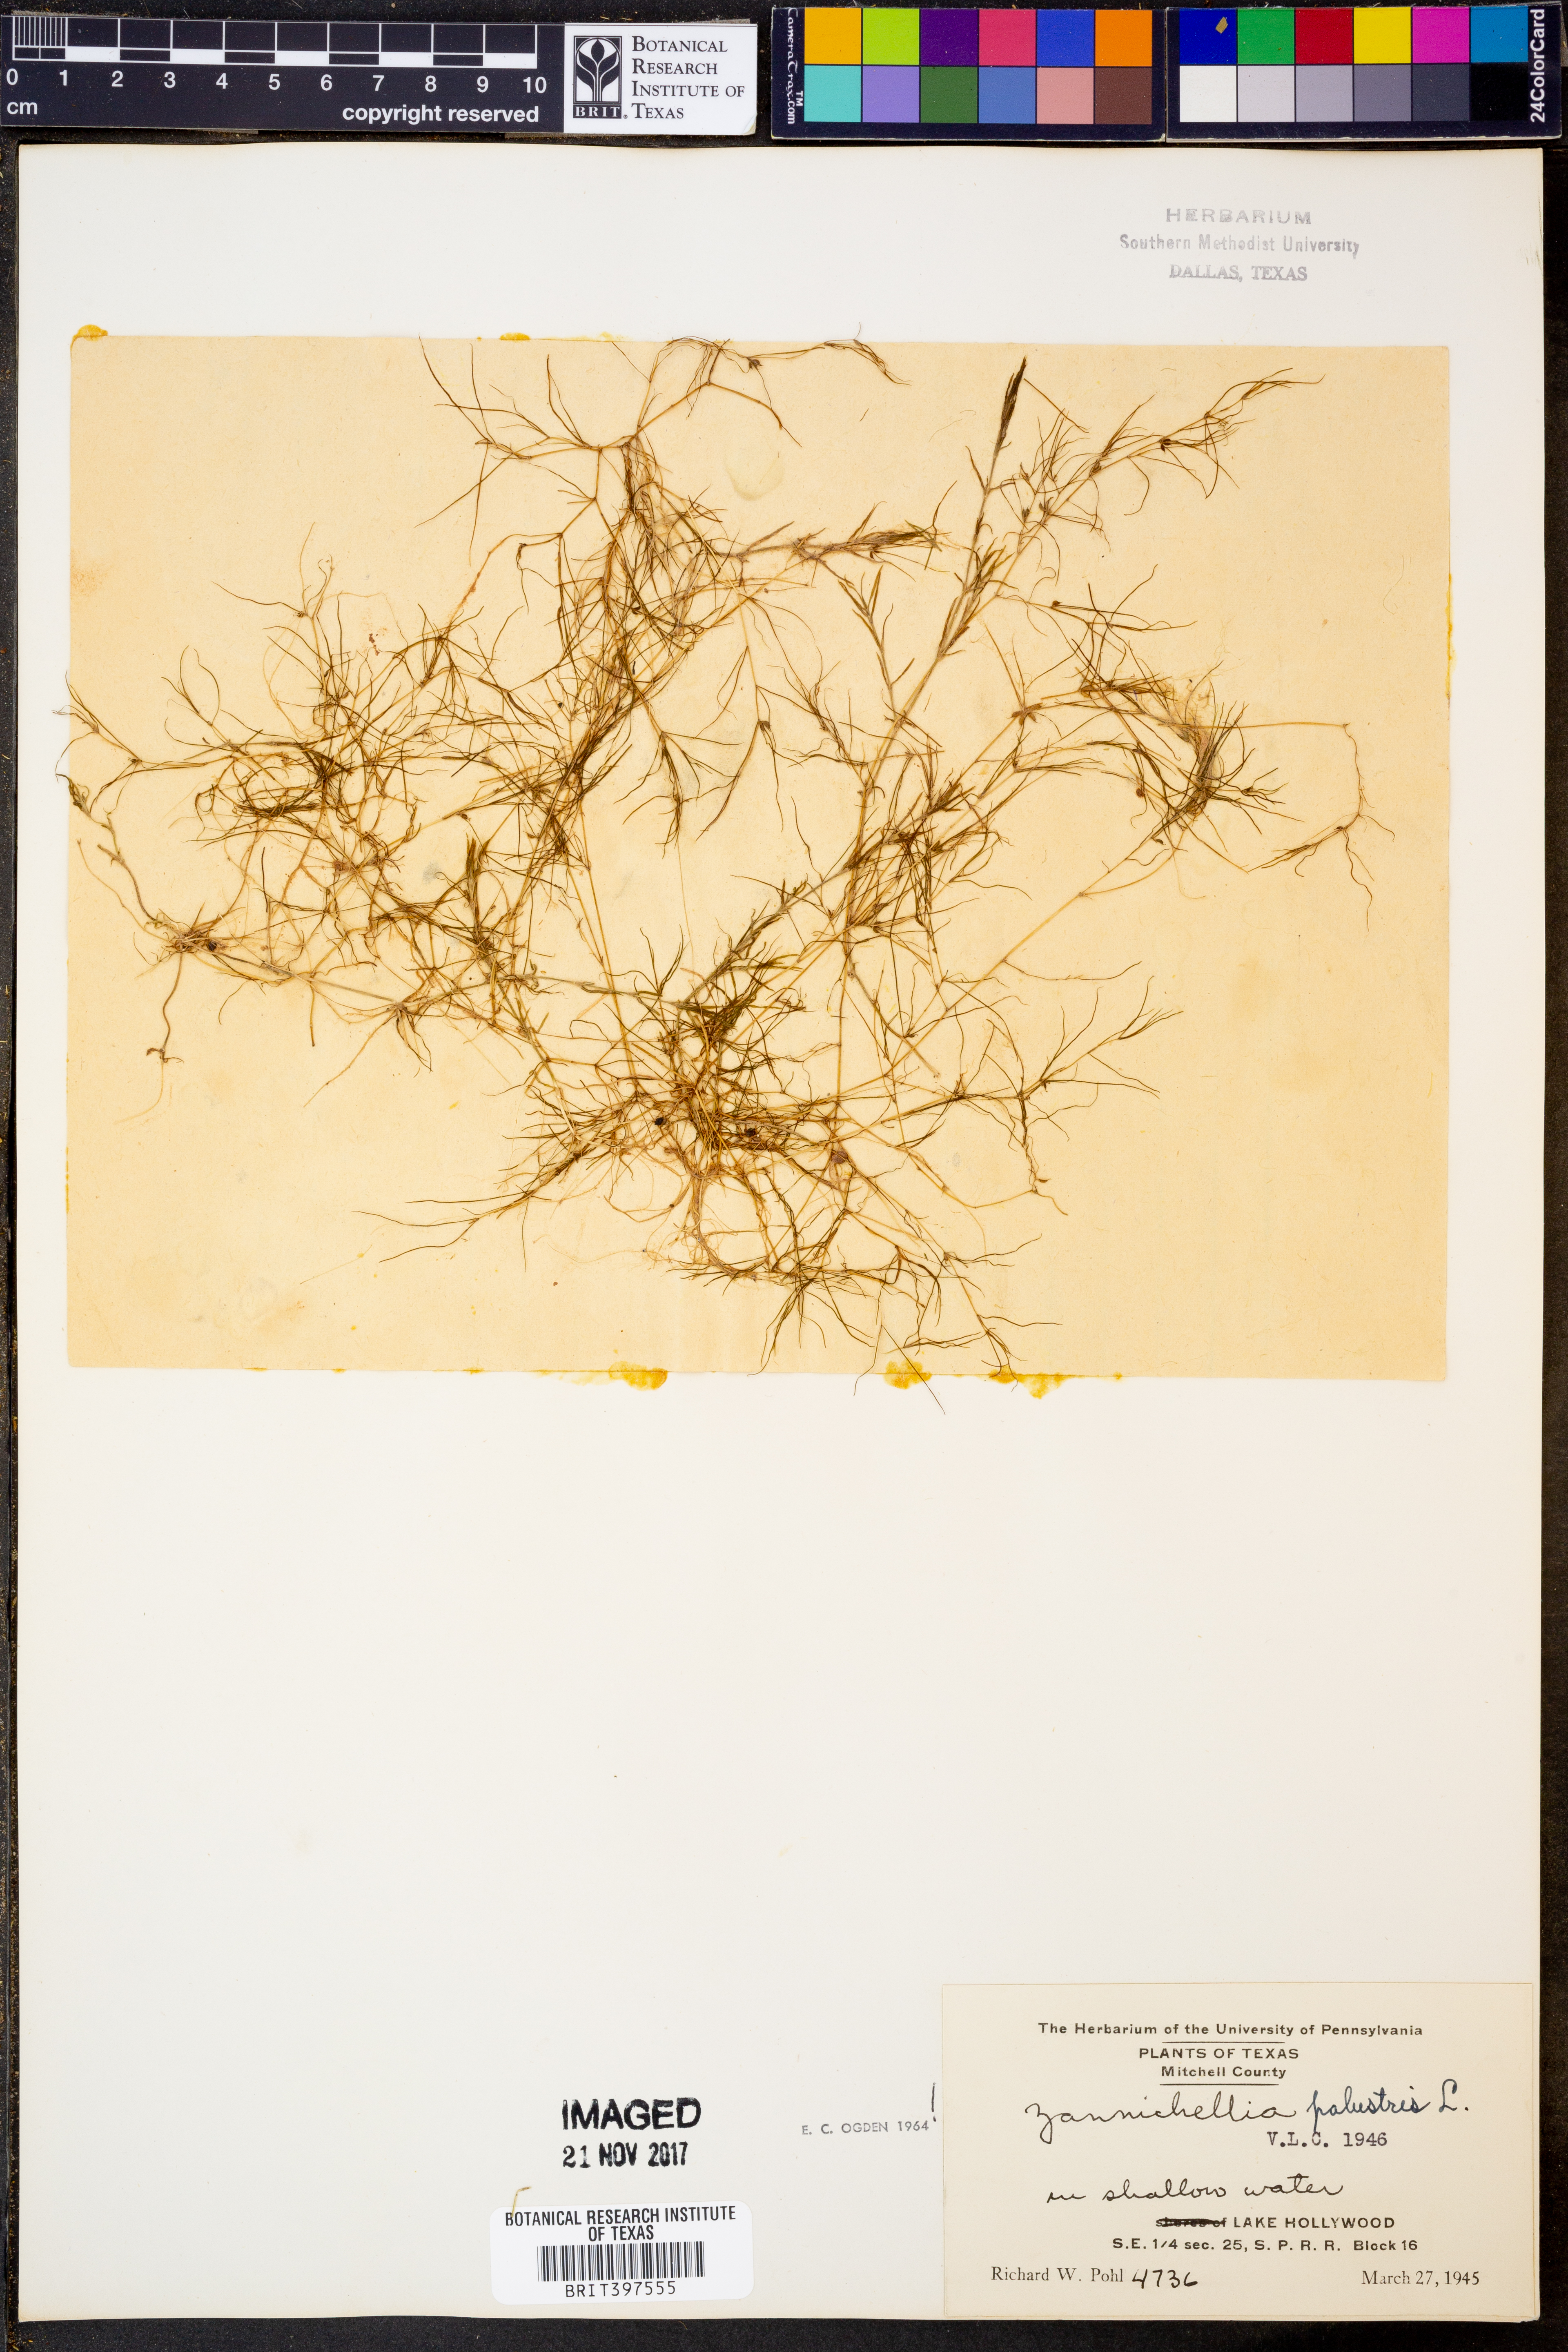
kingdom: Plantae
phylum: Tracheophyta
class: Liliopsida
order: Alismatales
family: Potamogetonaceae
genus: Zannichellia
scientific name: Zannichellia palustris
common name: Horned pondweed
